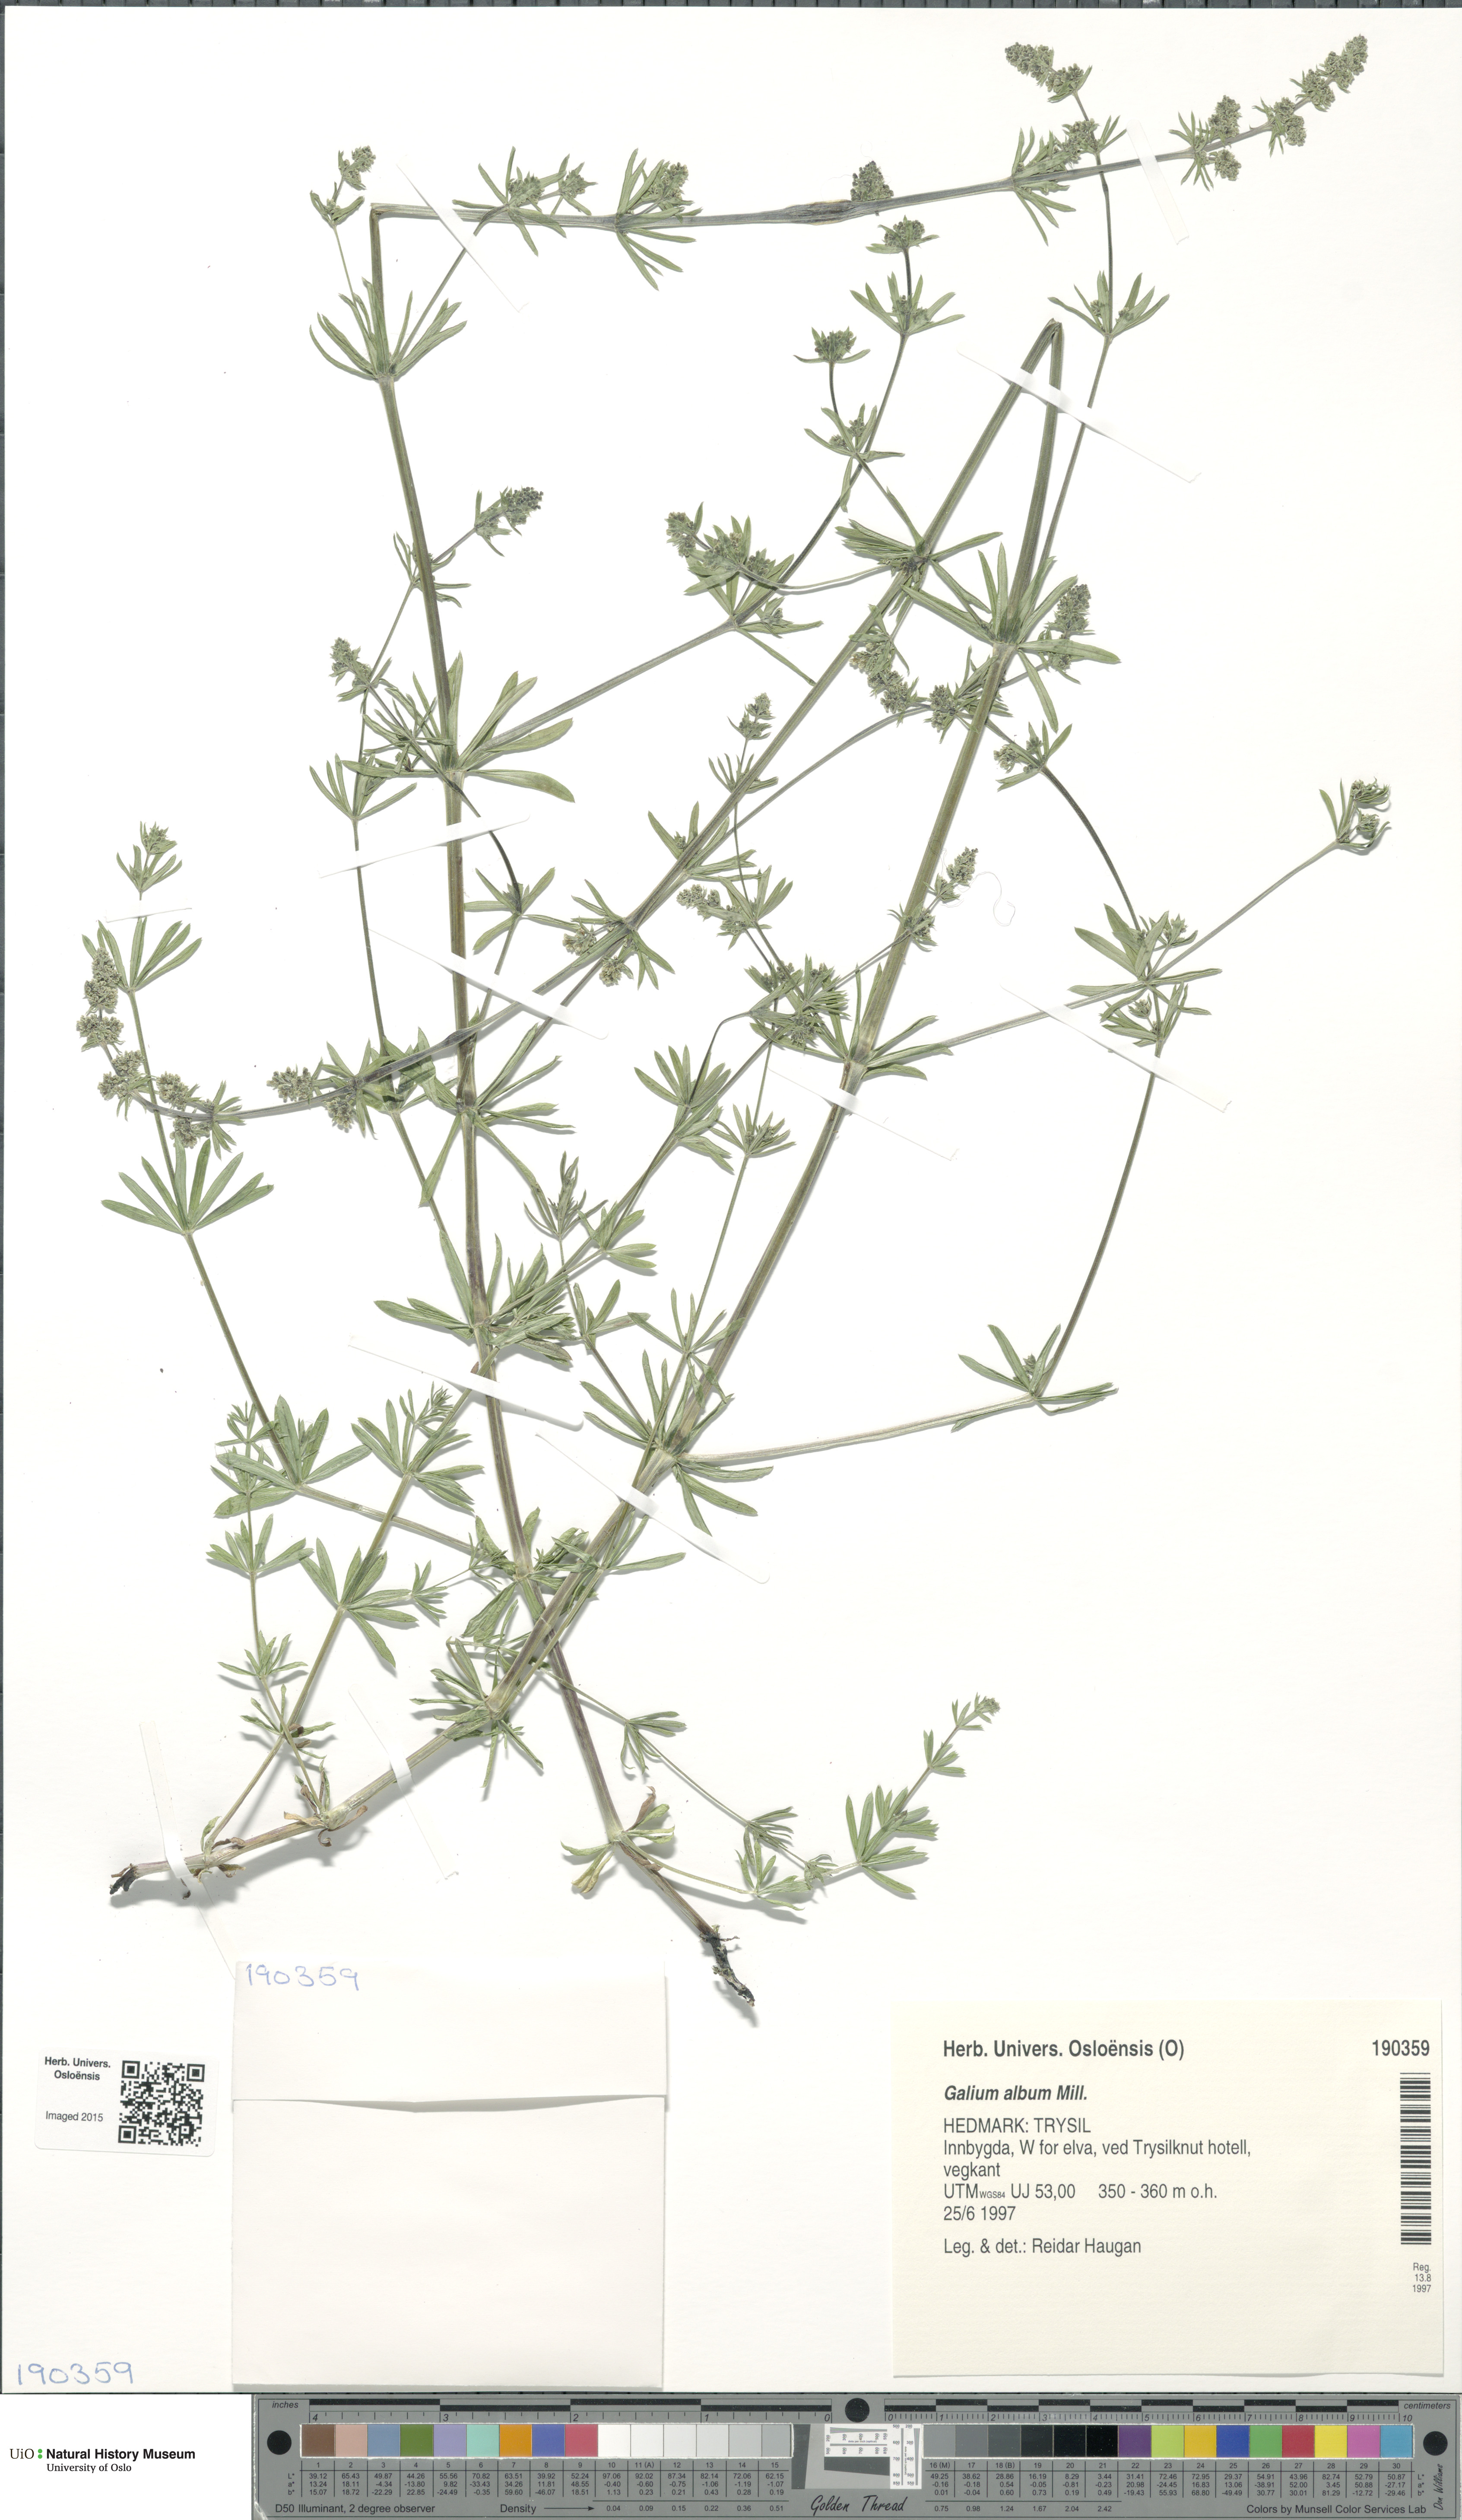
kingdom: Plantae
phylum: Tracheophyta
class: Magnoliopsida
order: Gentianales
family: Rubiaceae
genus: Galium
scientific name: Galium album
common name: White bedstraw
